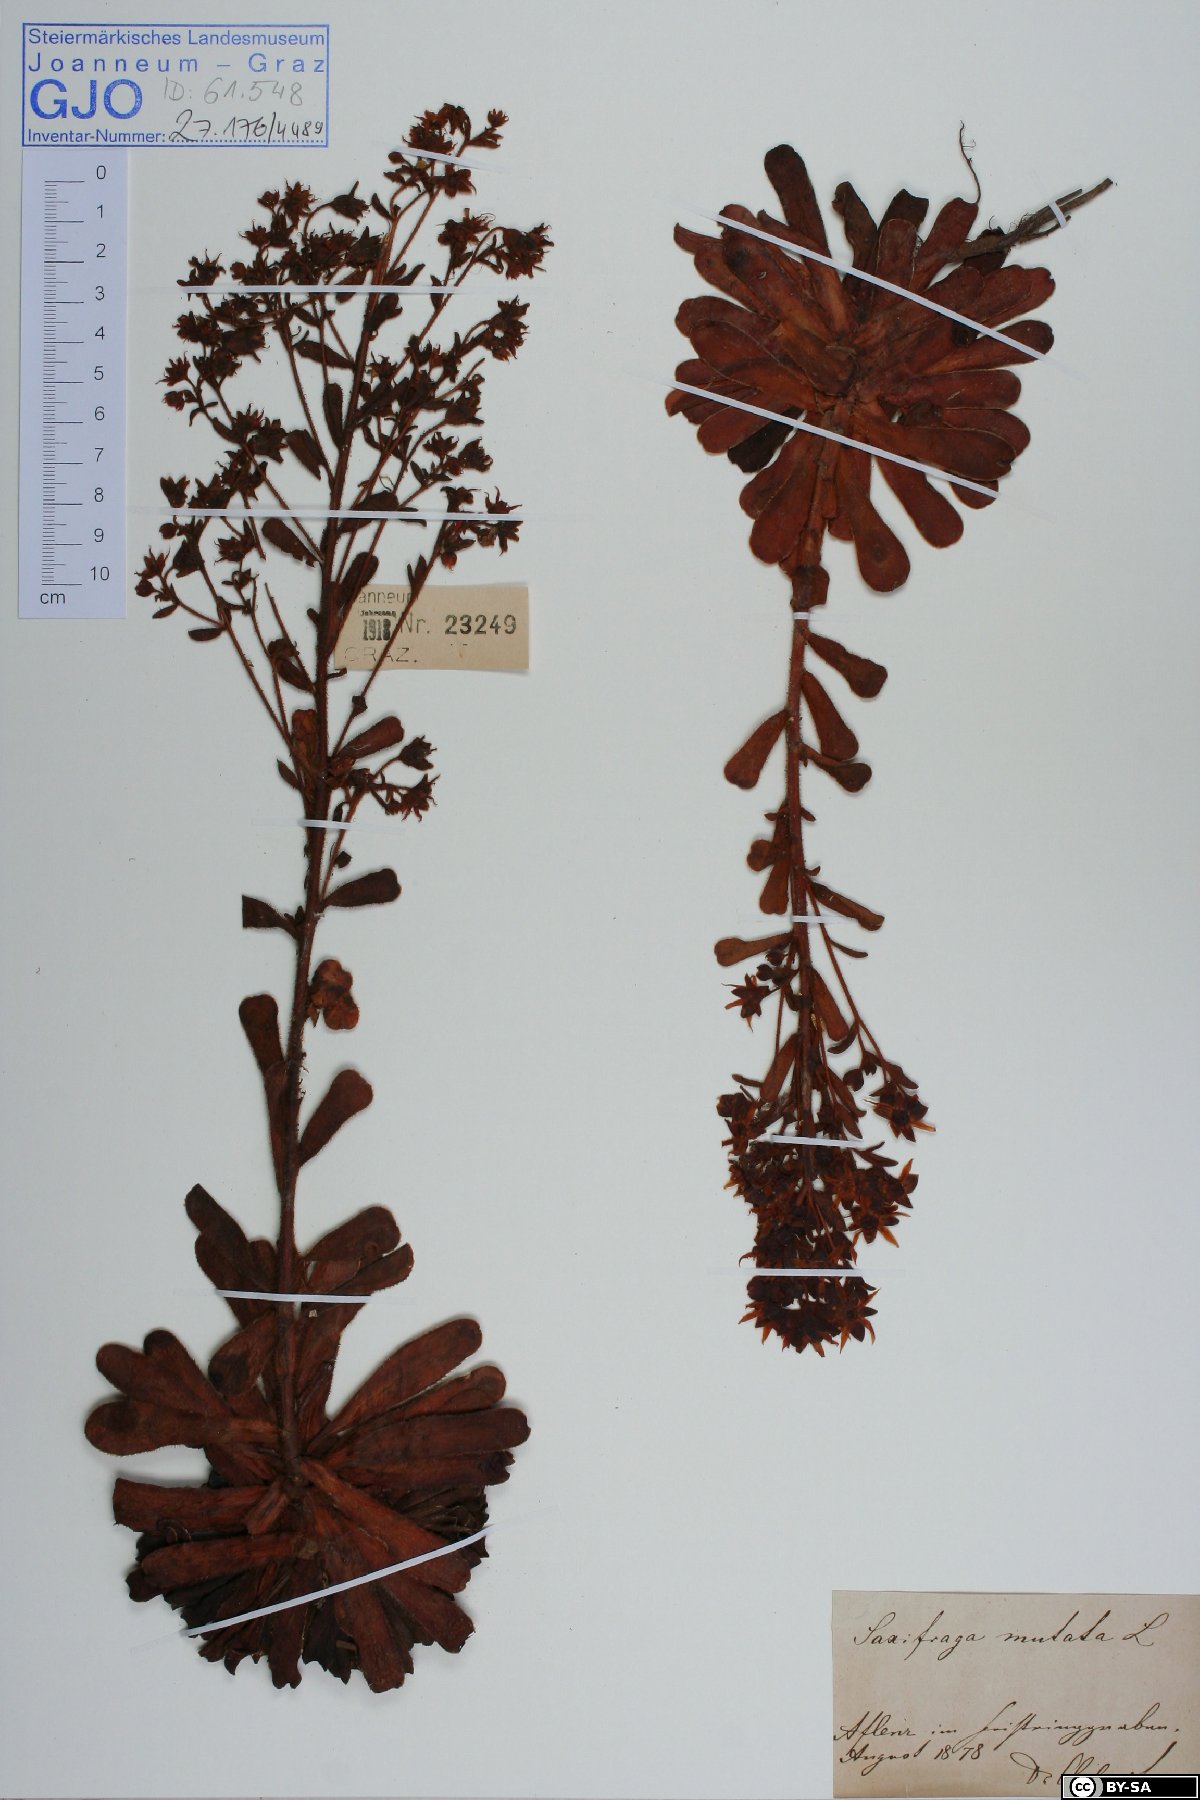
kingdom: Plantae
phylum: Tracheophyta
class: Magnoliopsida
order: Saxifragales
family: Saxifragaceae
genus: Saxifraga
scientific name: Saxifraga mutata
